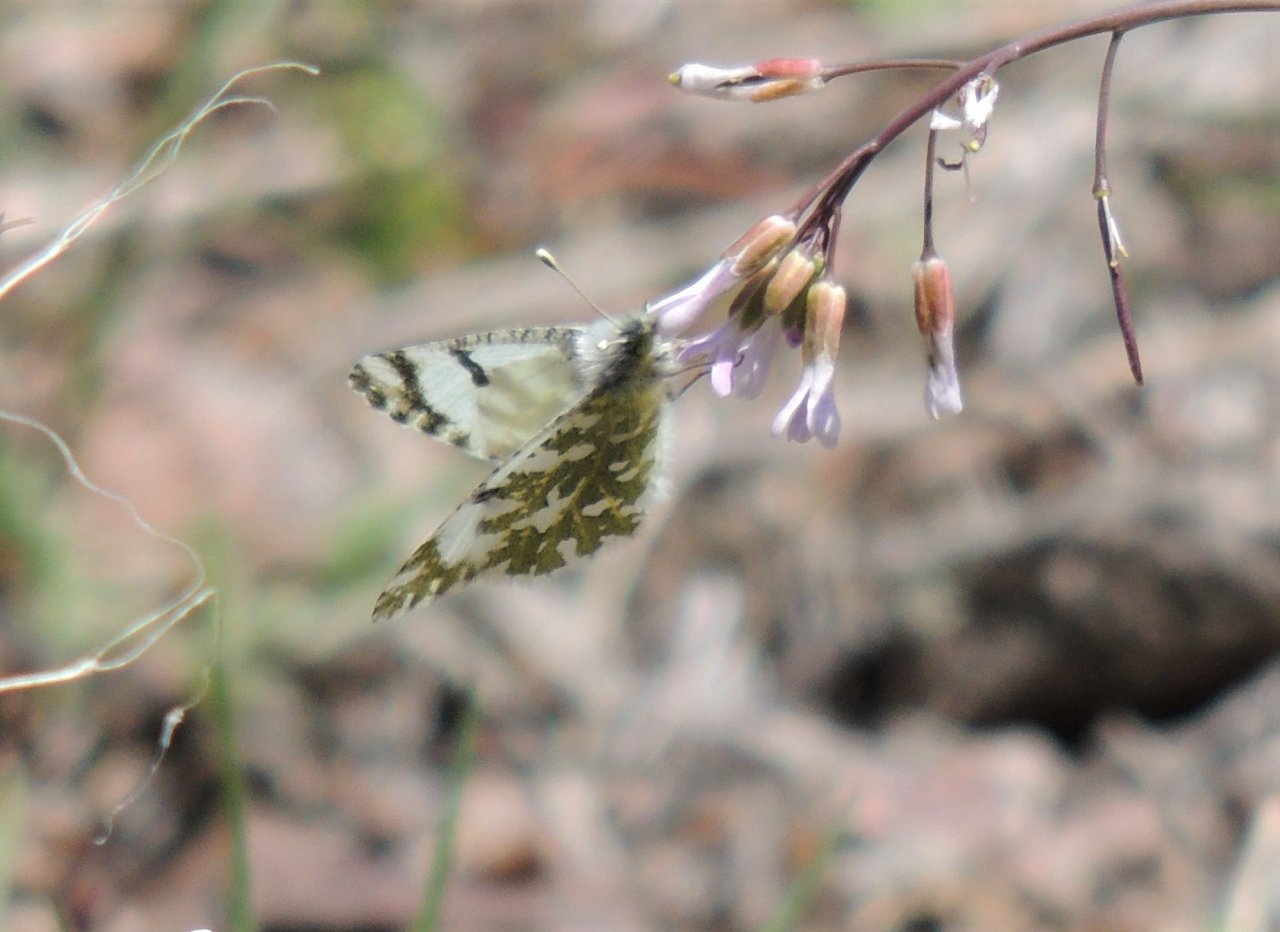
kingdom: Animalia
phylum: Arthropoda
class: Insecta
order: Lepidoptera
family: Pieridae
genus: Euchloe
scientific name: Euchloe lotta
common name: Desert Marble
